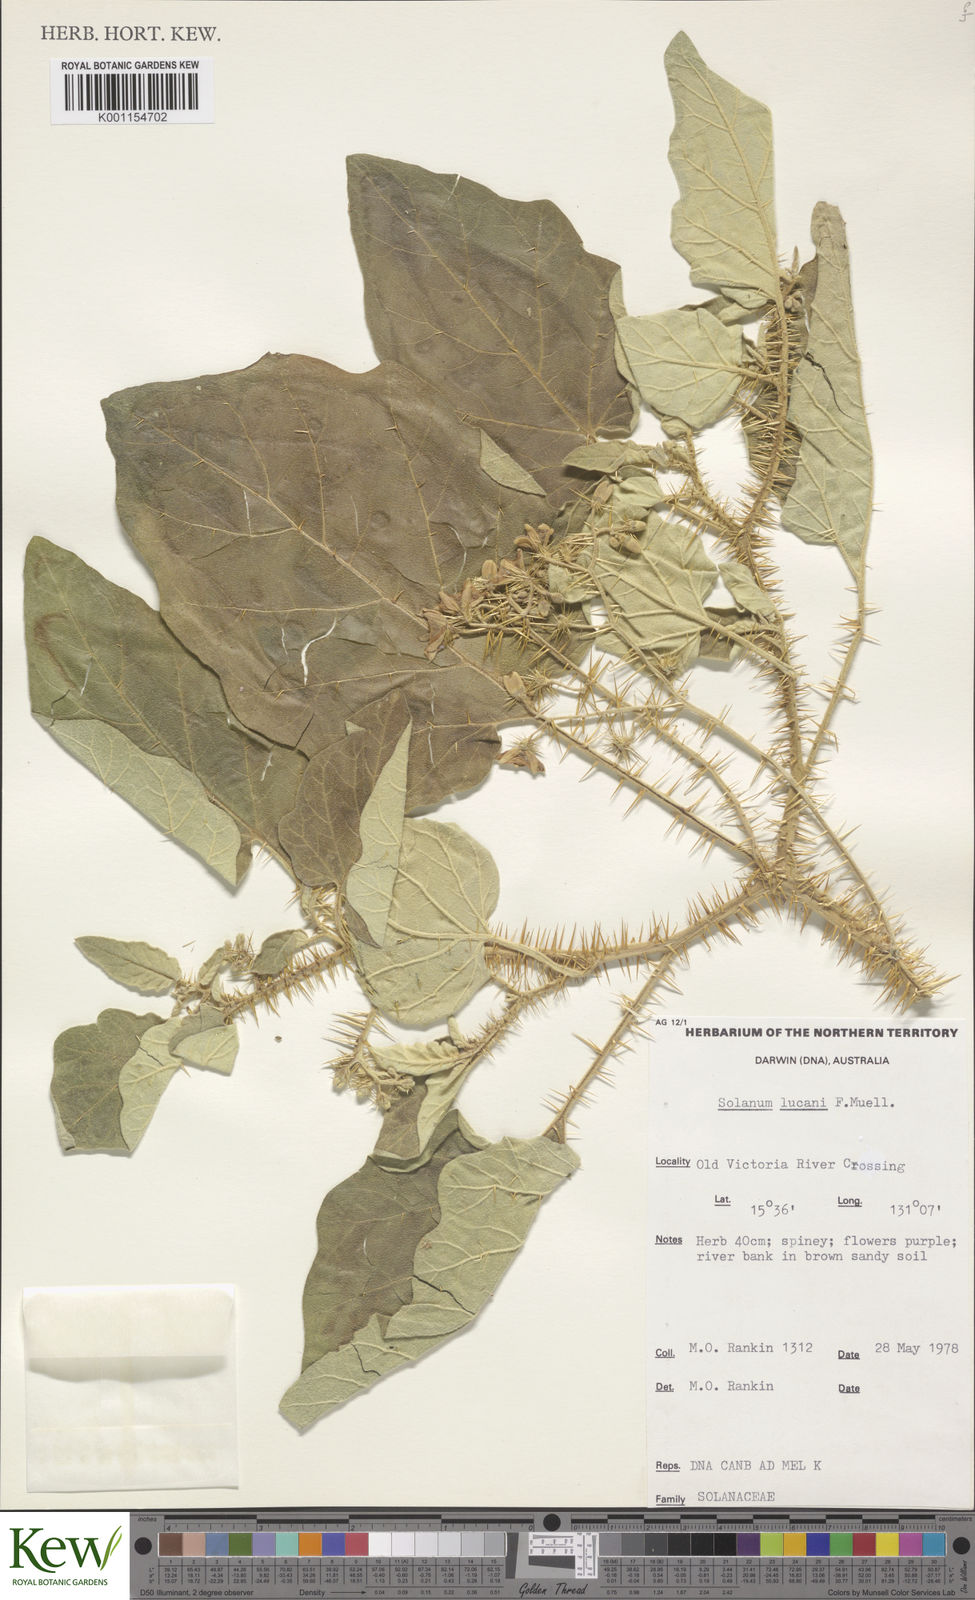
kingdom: Plantae
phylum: Tracheophyta
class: Magnoliopsida
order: Solanales
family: Solanaceae
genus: Solanum
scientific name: Solanum lucani
